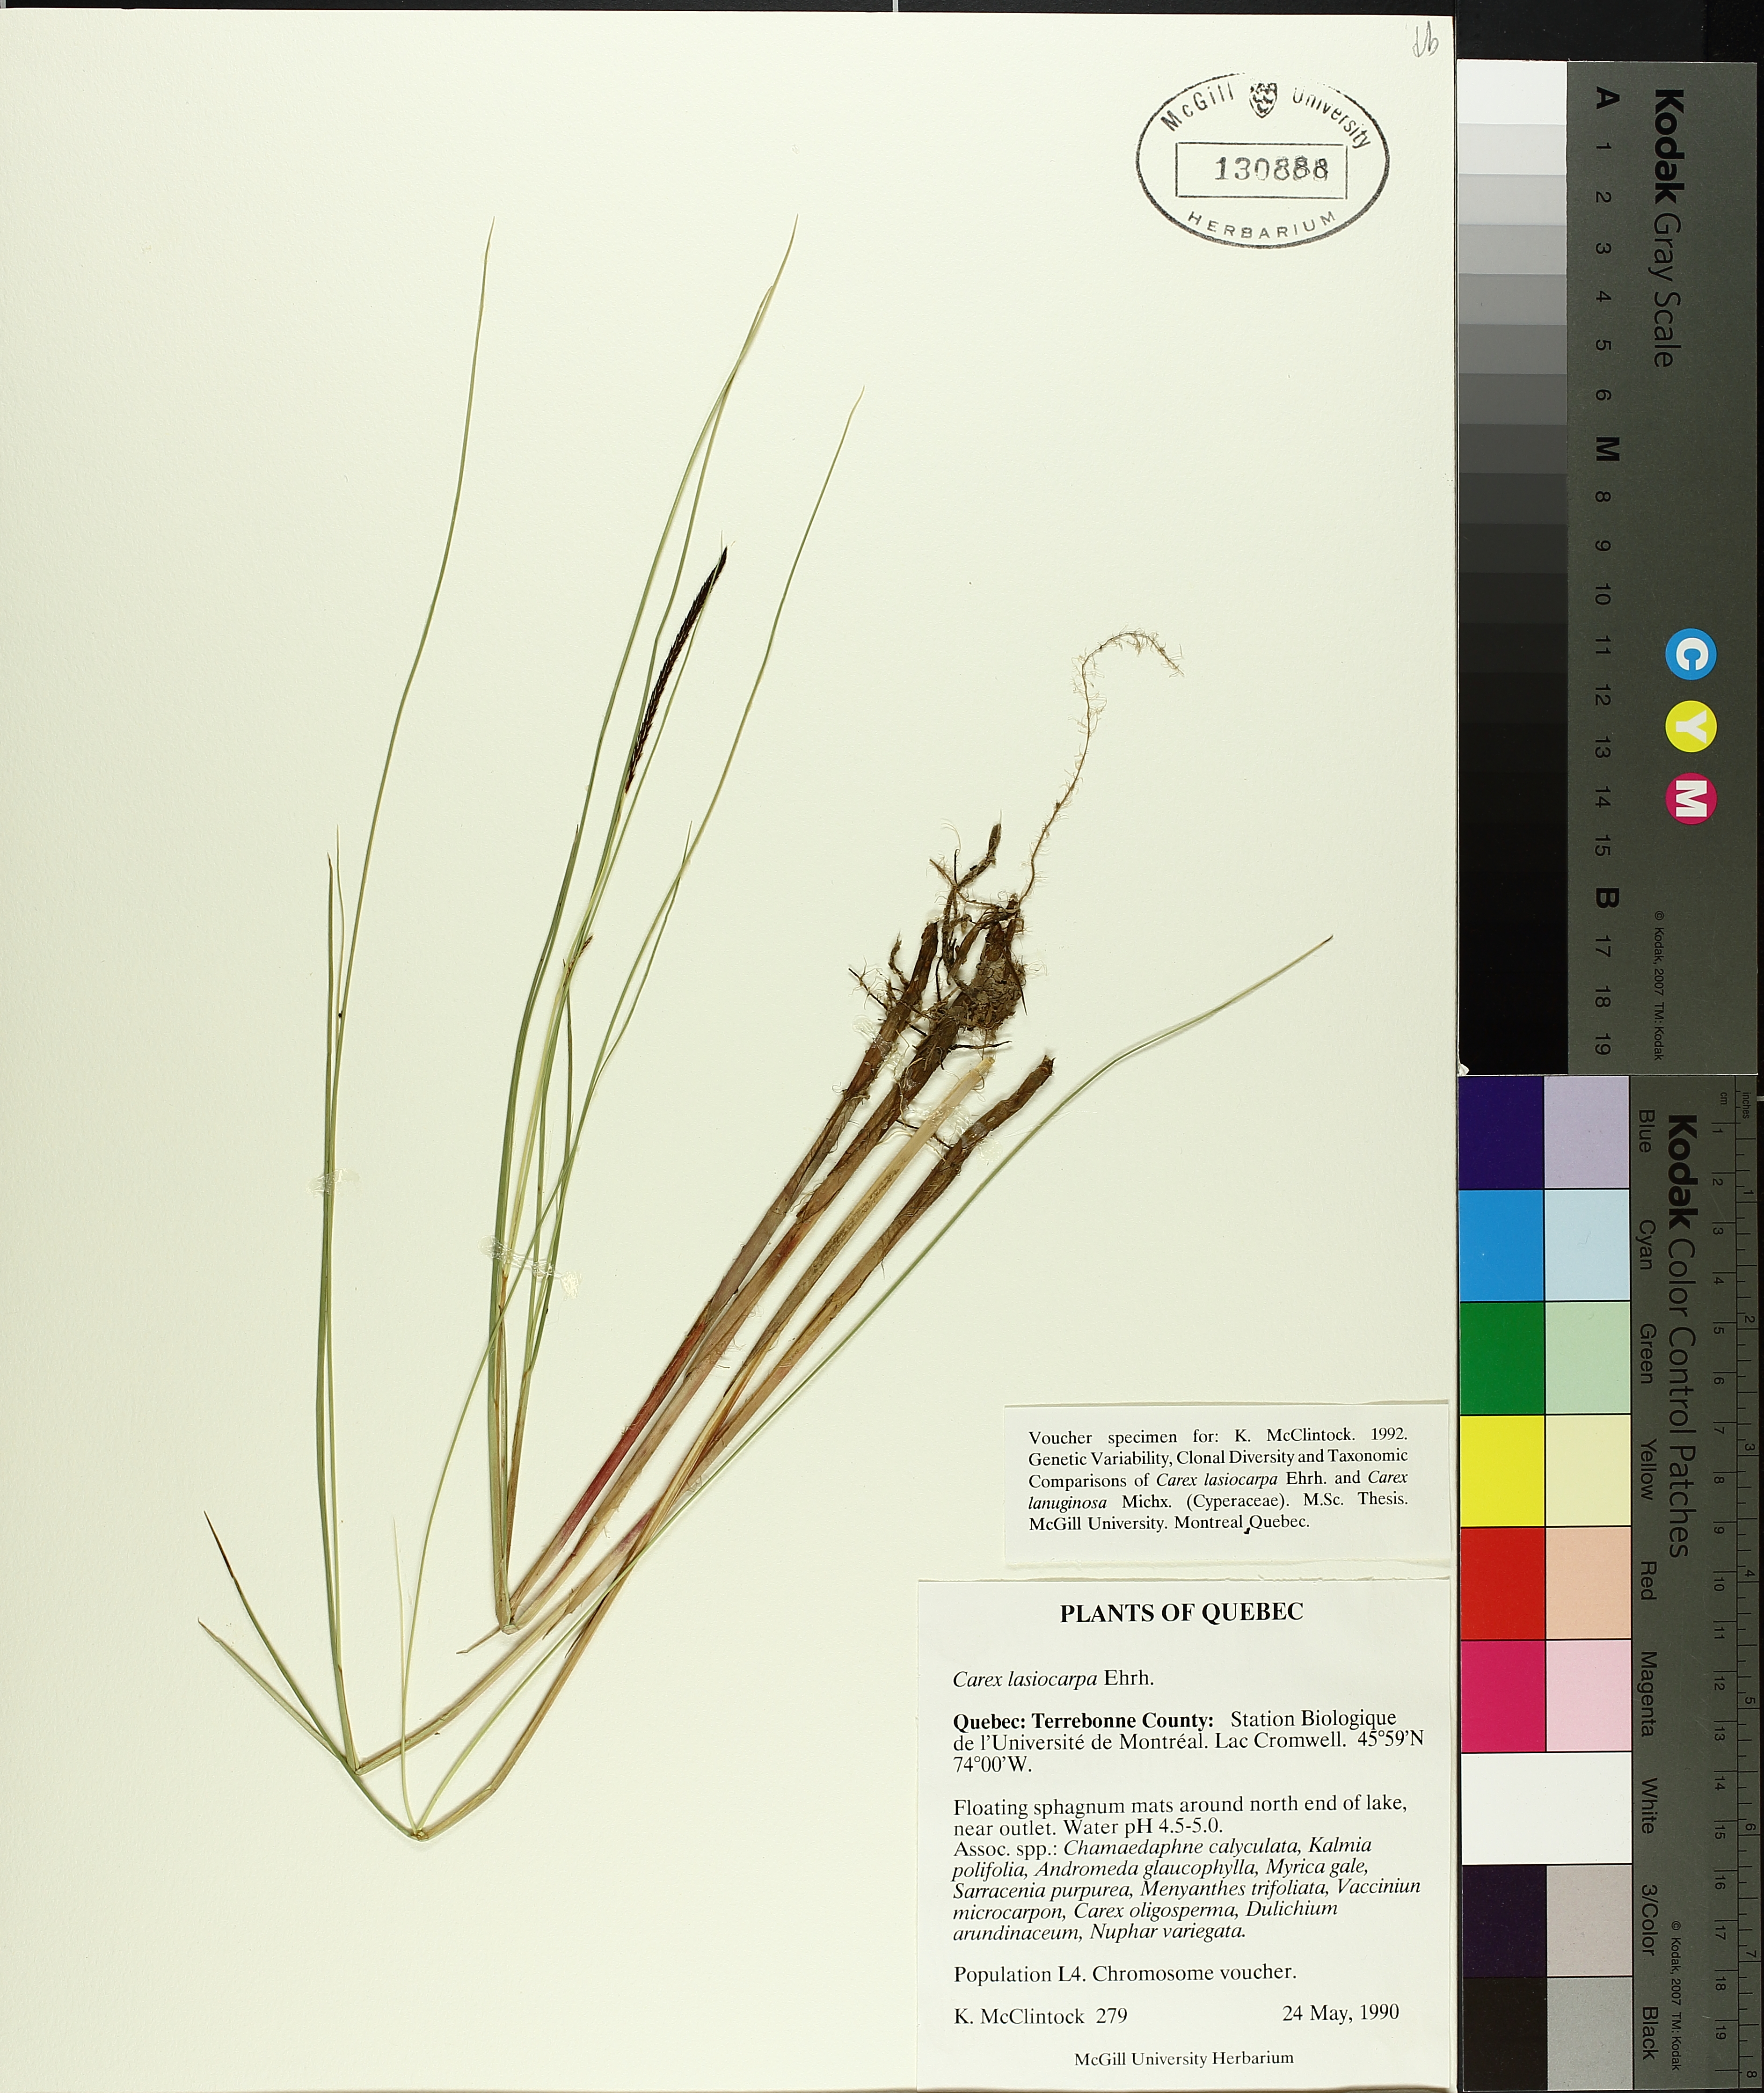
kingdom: Plantae
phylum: Tracheophyta
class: Liliopsida
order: Poales
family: Cyperaceae
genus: Carex
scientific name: Carex lasiocarpa
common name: Slender sedge
